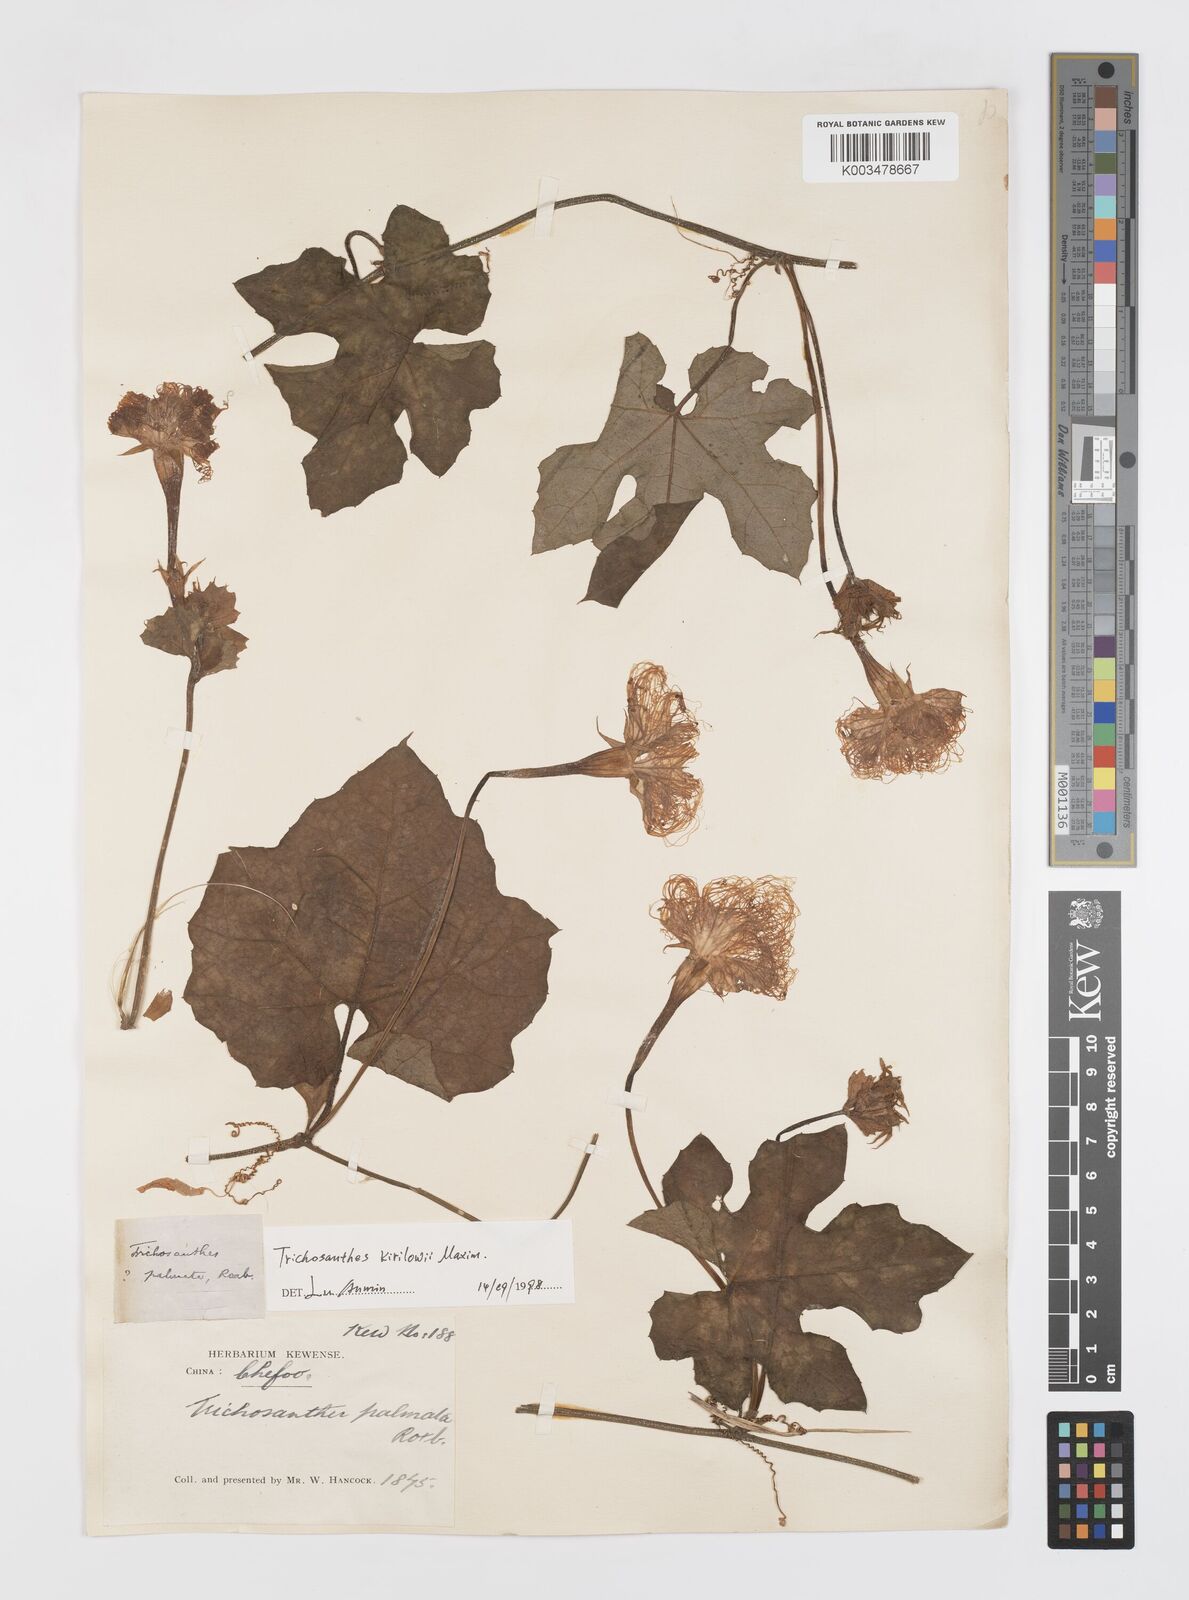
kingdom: Plantae
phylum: Tracheophyta
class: Magnoliopsida
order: Cucurbitales
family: Cucurbitaceae
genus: Trichosanthes
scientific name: Trichosanthes kirilowii
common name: Chinese-cucumber
